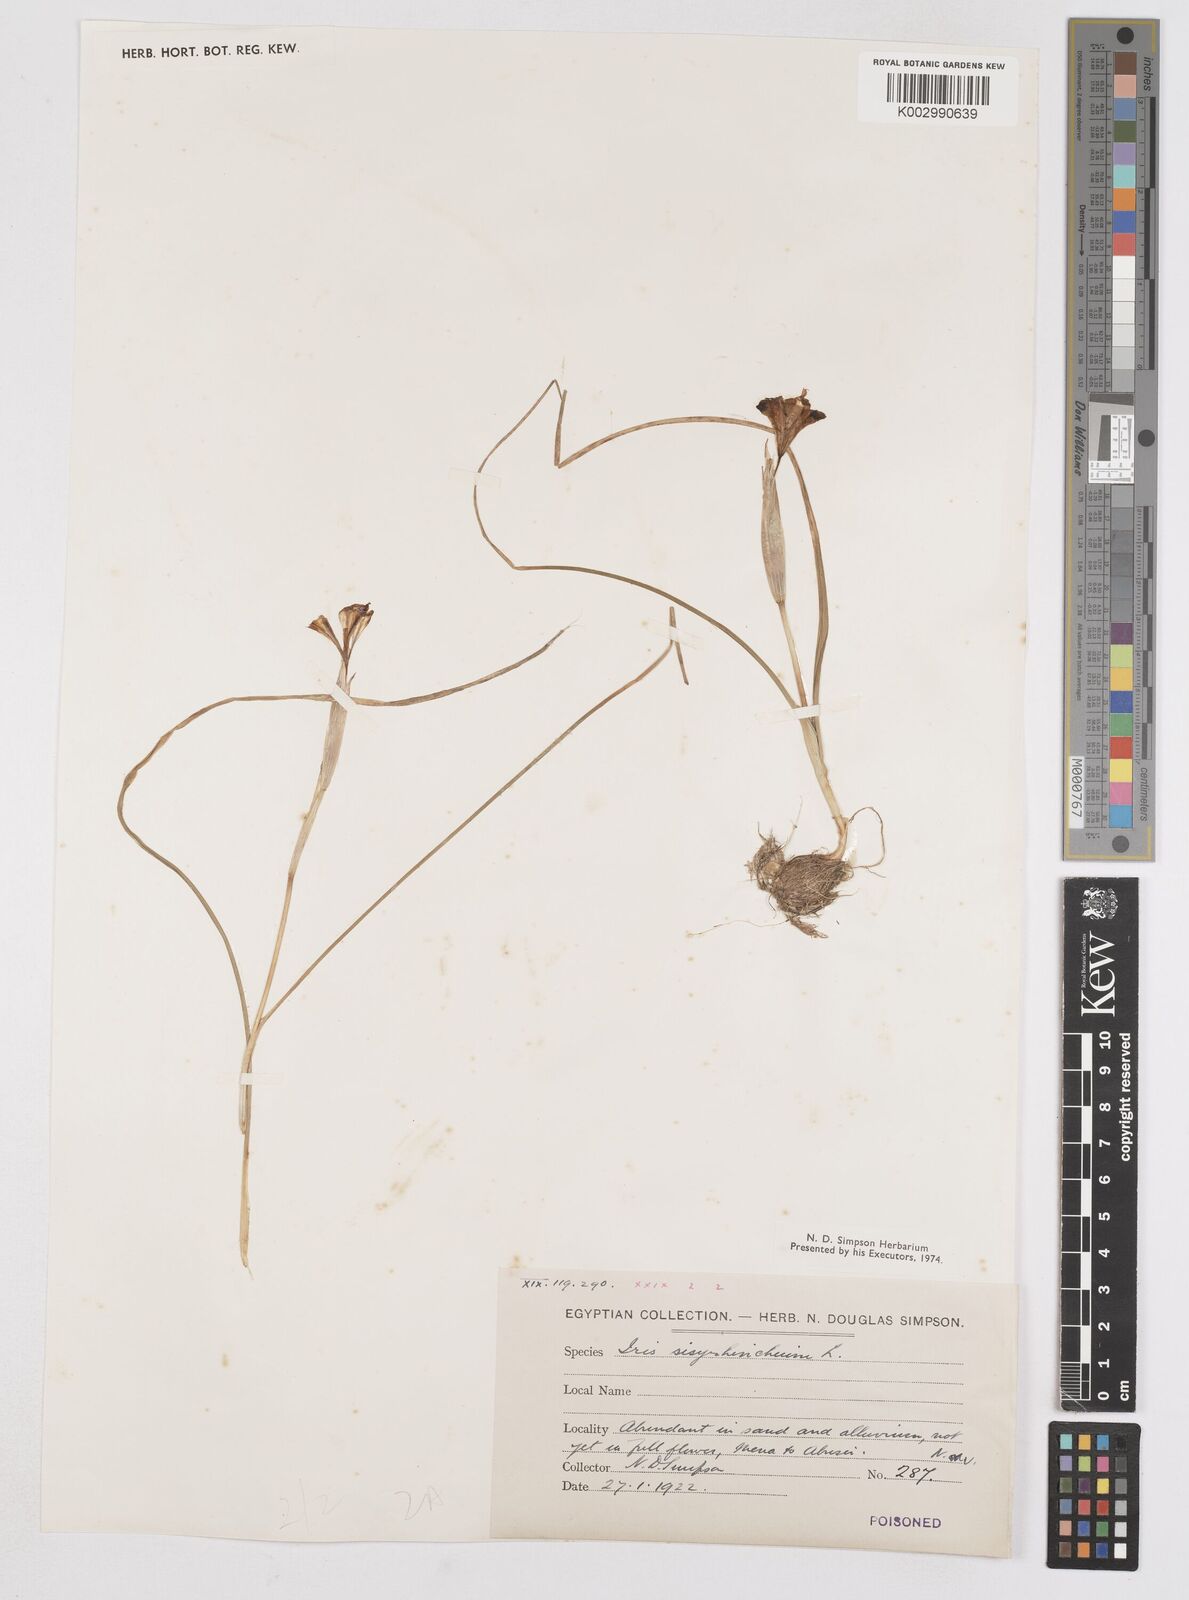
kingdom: Plantae
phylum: Tracheophyta
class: Liliopsida
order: Asparagales
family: Iridaceae
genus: Moraea
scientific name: Moraea sisyrinchium
